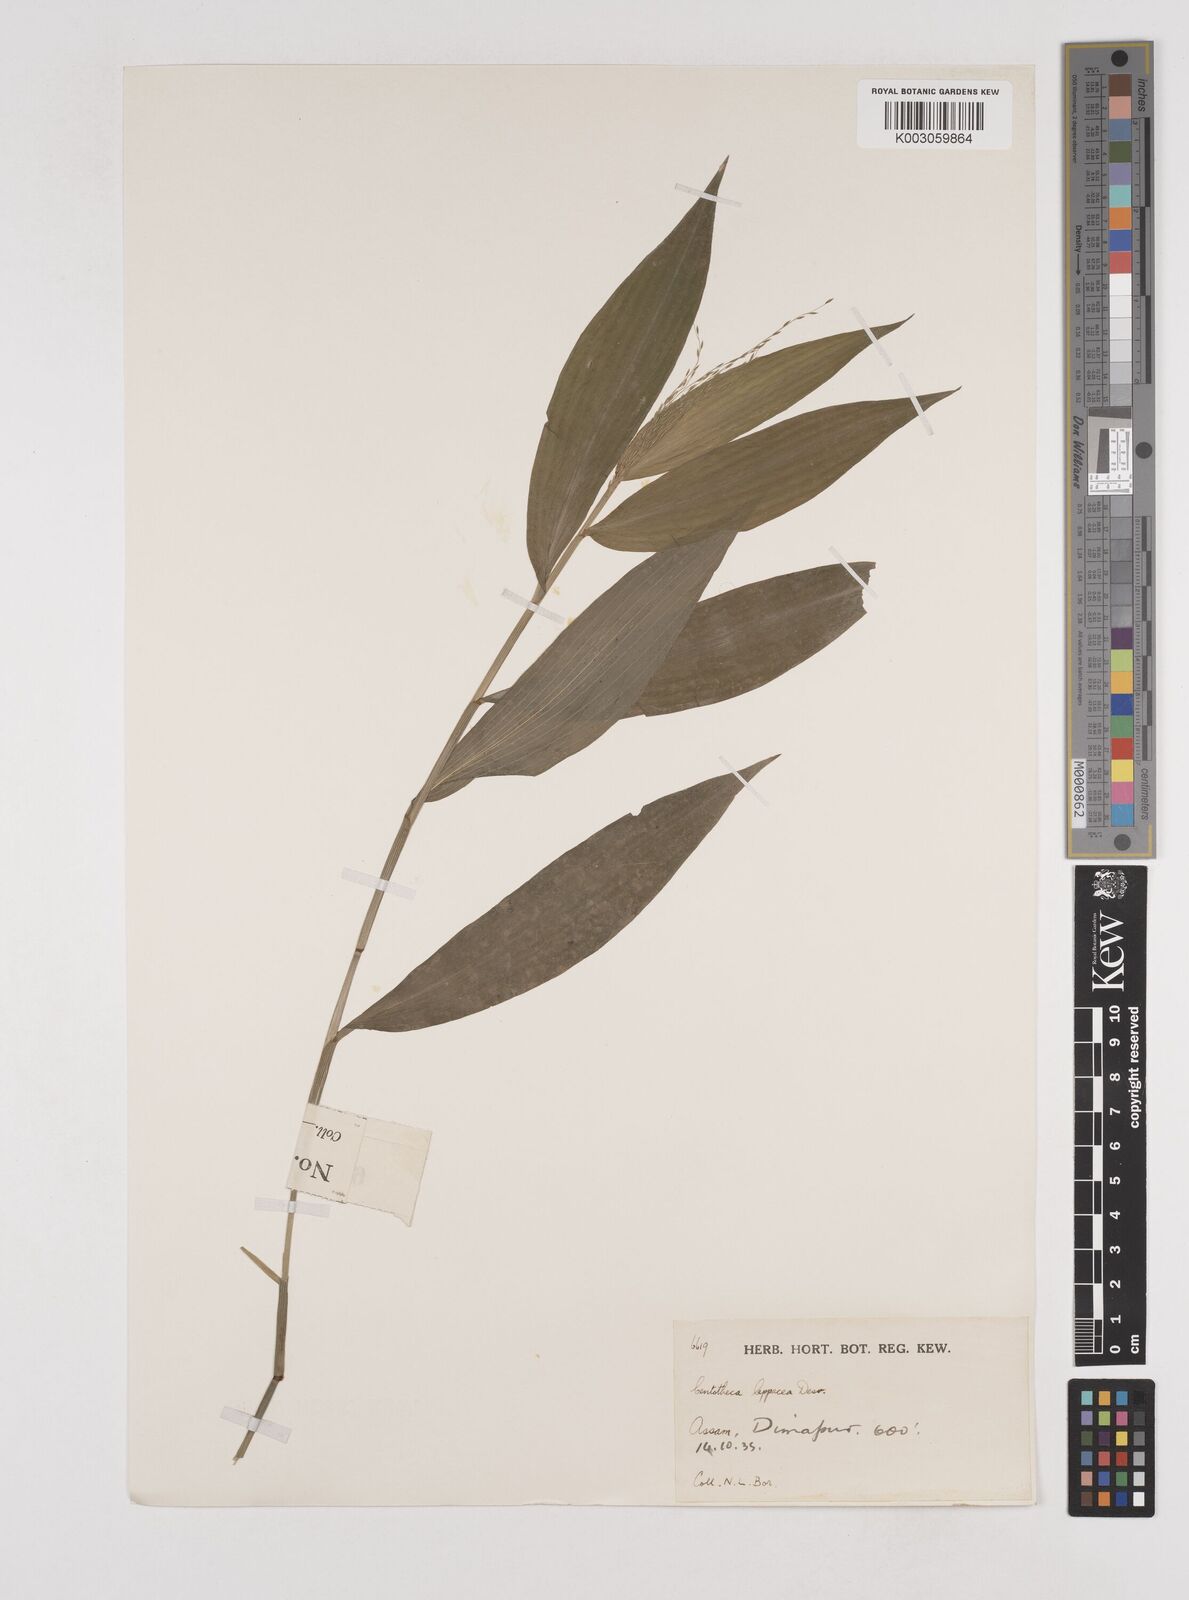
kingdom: Plantae
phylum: Tracheophyta
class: Liliopsida
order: Poales
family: Poaceae
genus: Centotheca
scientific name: Centotheca lappacea
